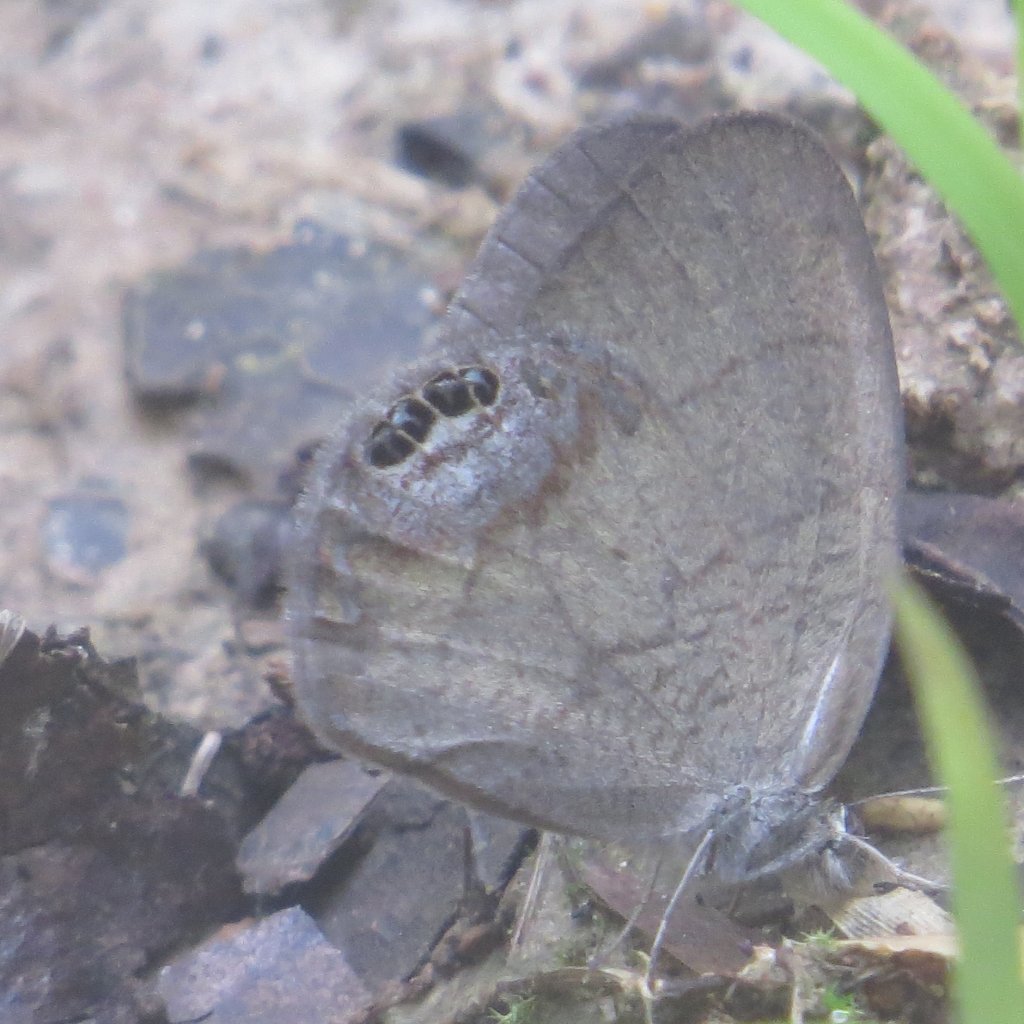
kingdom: Animalia
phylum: Arthropoda
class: Insecta
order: Lepidoptera
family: Nymphalidae
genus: Euptychia
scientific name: Euptychia cornelius
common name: Gemmed Satyr
